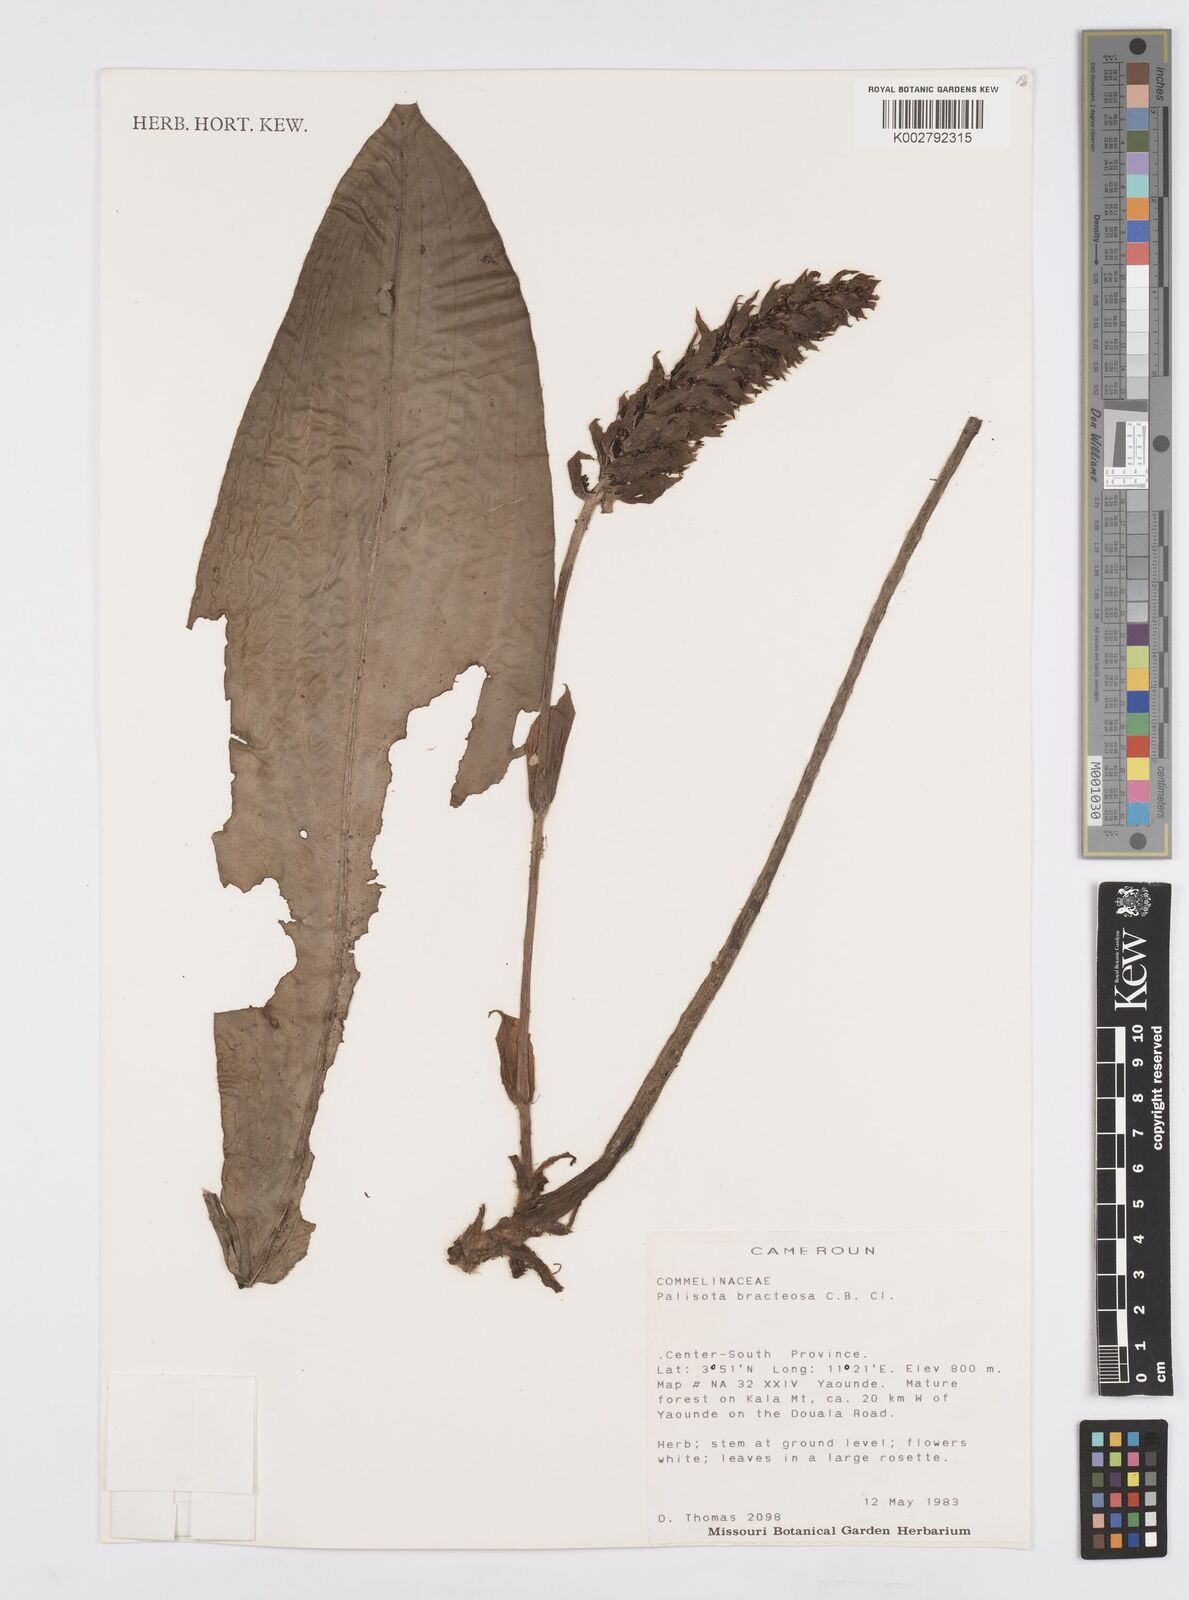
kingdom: Plantae
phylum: Tracheophyta
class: Liliopsida
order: Commelinales
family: Commelinaceae
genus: Palisota
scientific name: Palisota bracteosa
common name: Palisota
